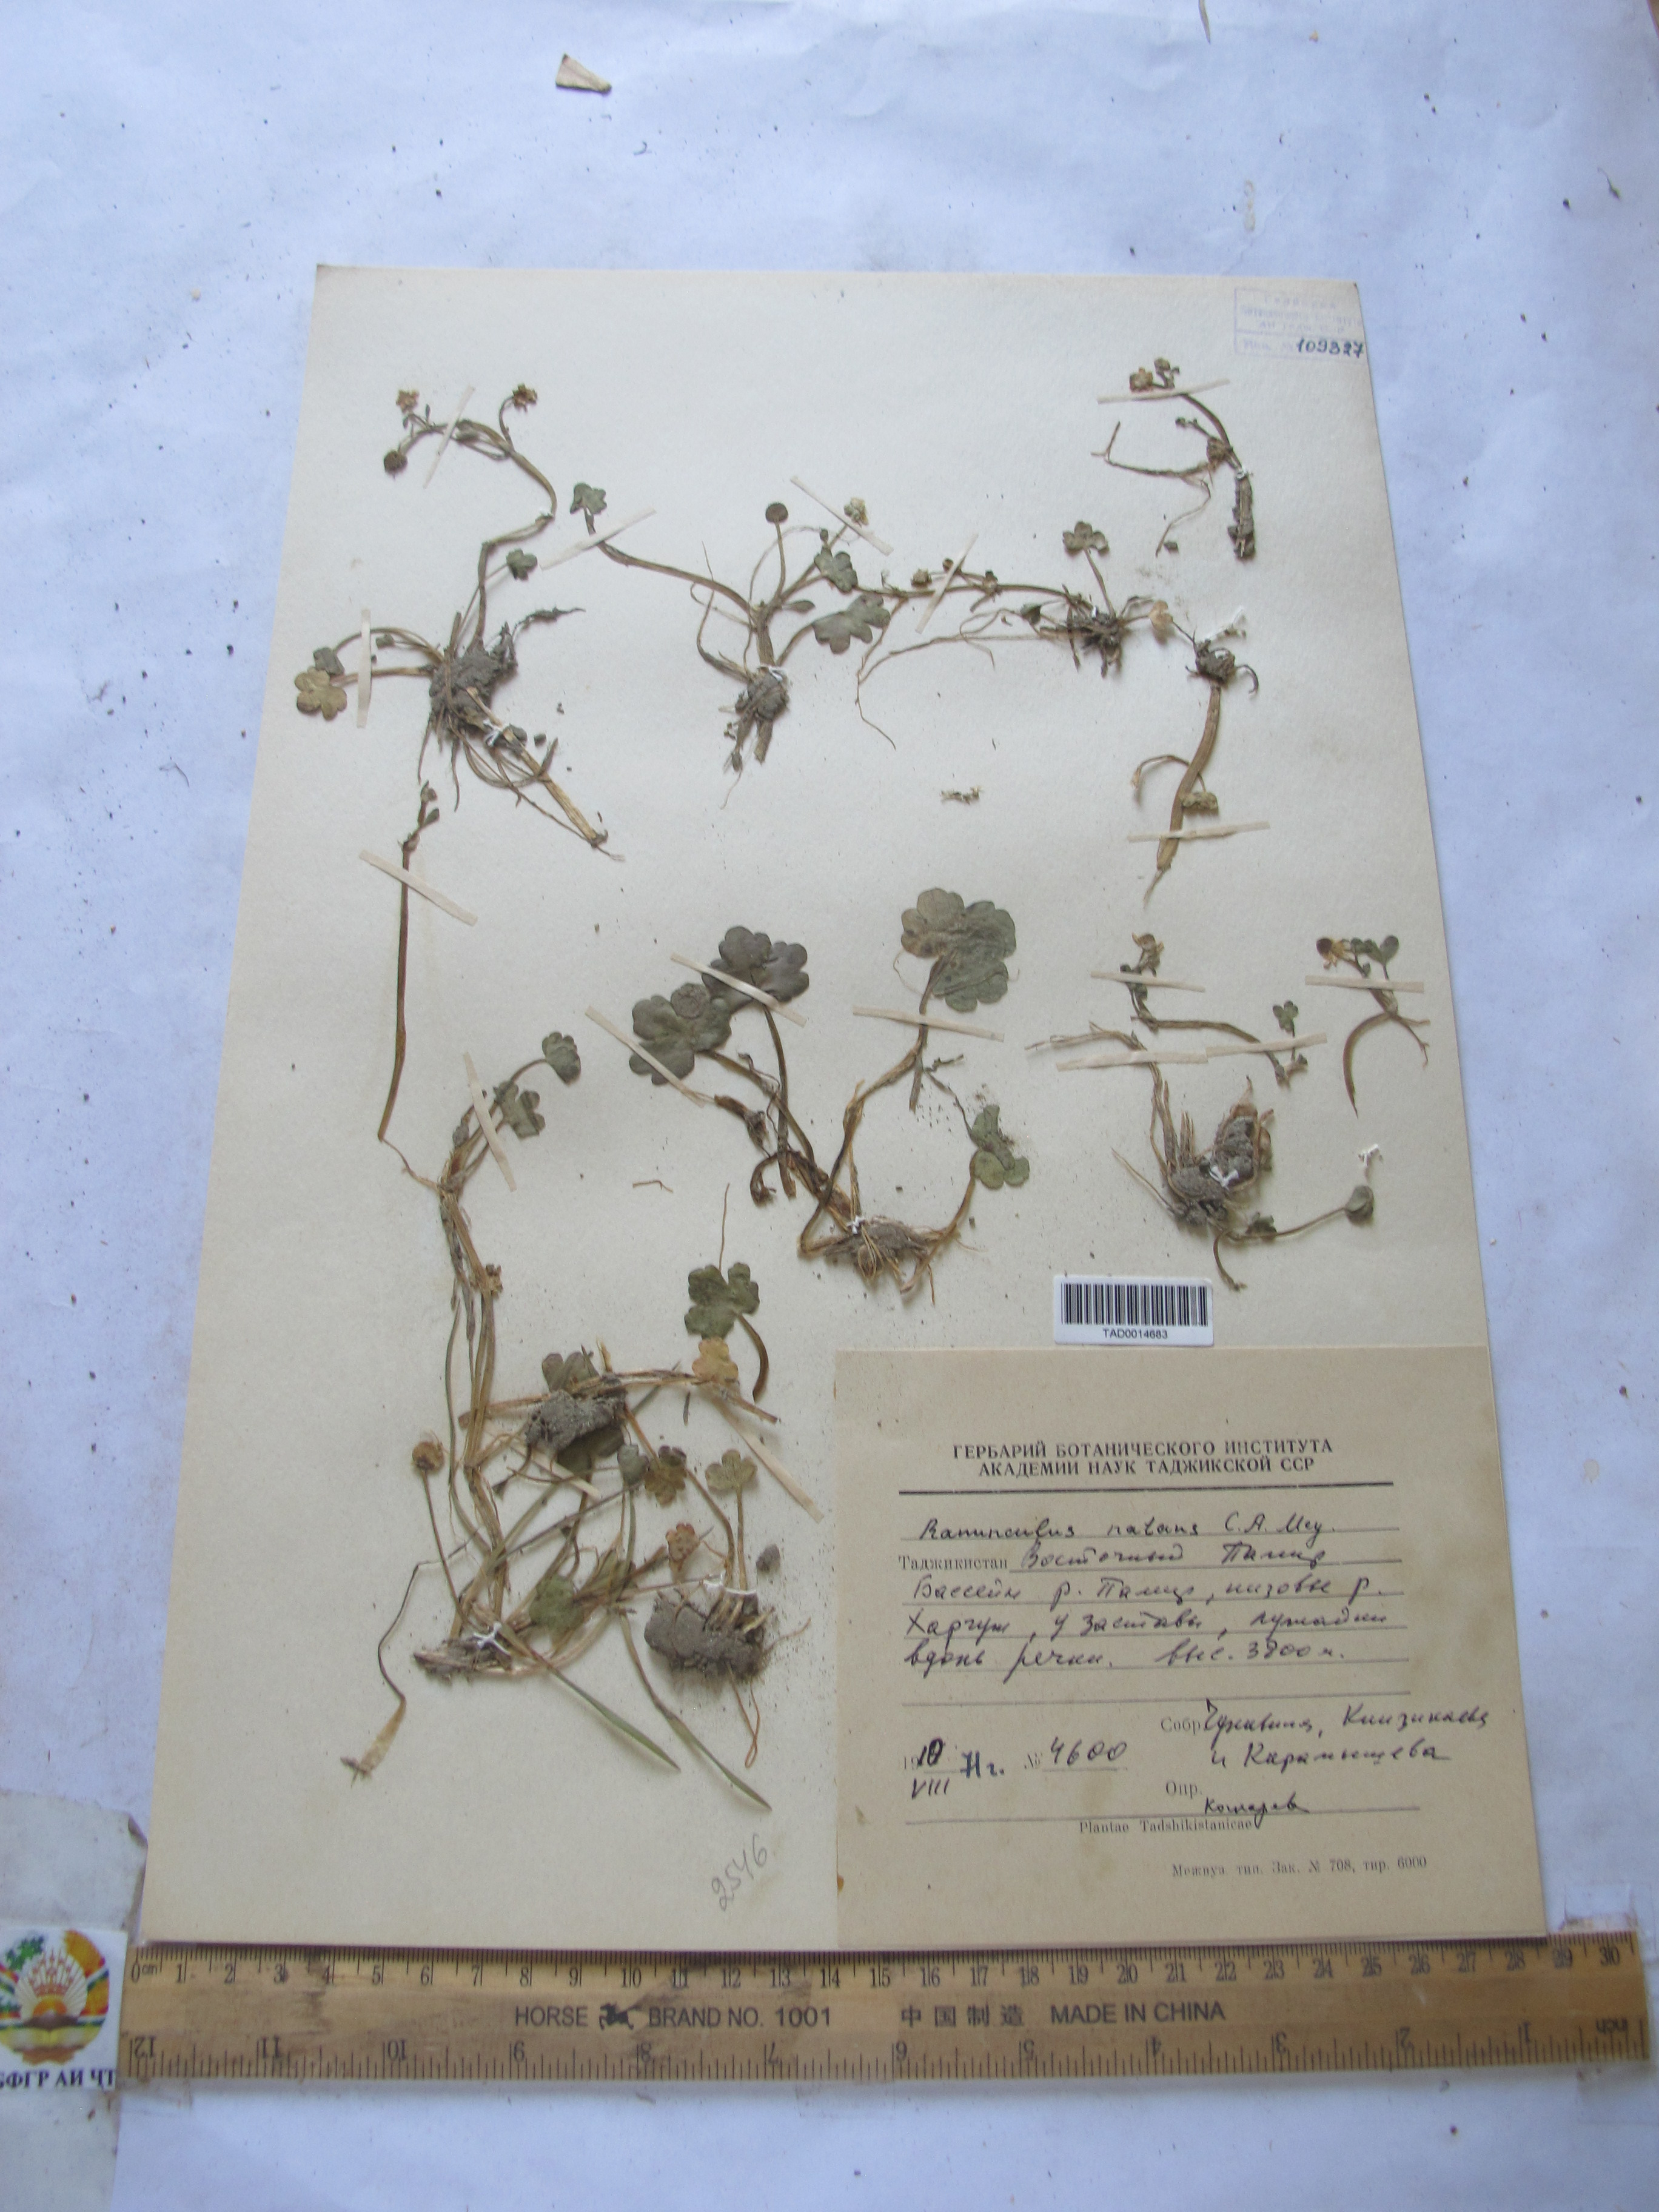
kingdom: Plantae
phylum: Tracheophyta
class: Magnoliopsida
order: Ranunculales
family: Ranunculaceae
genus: Ranunculus
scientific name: Ranunculus natans
